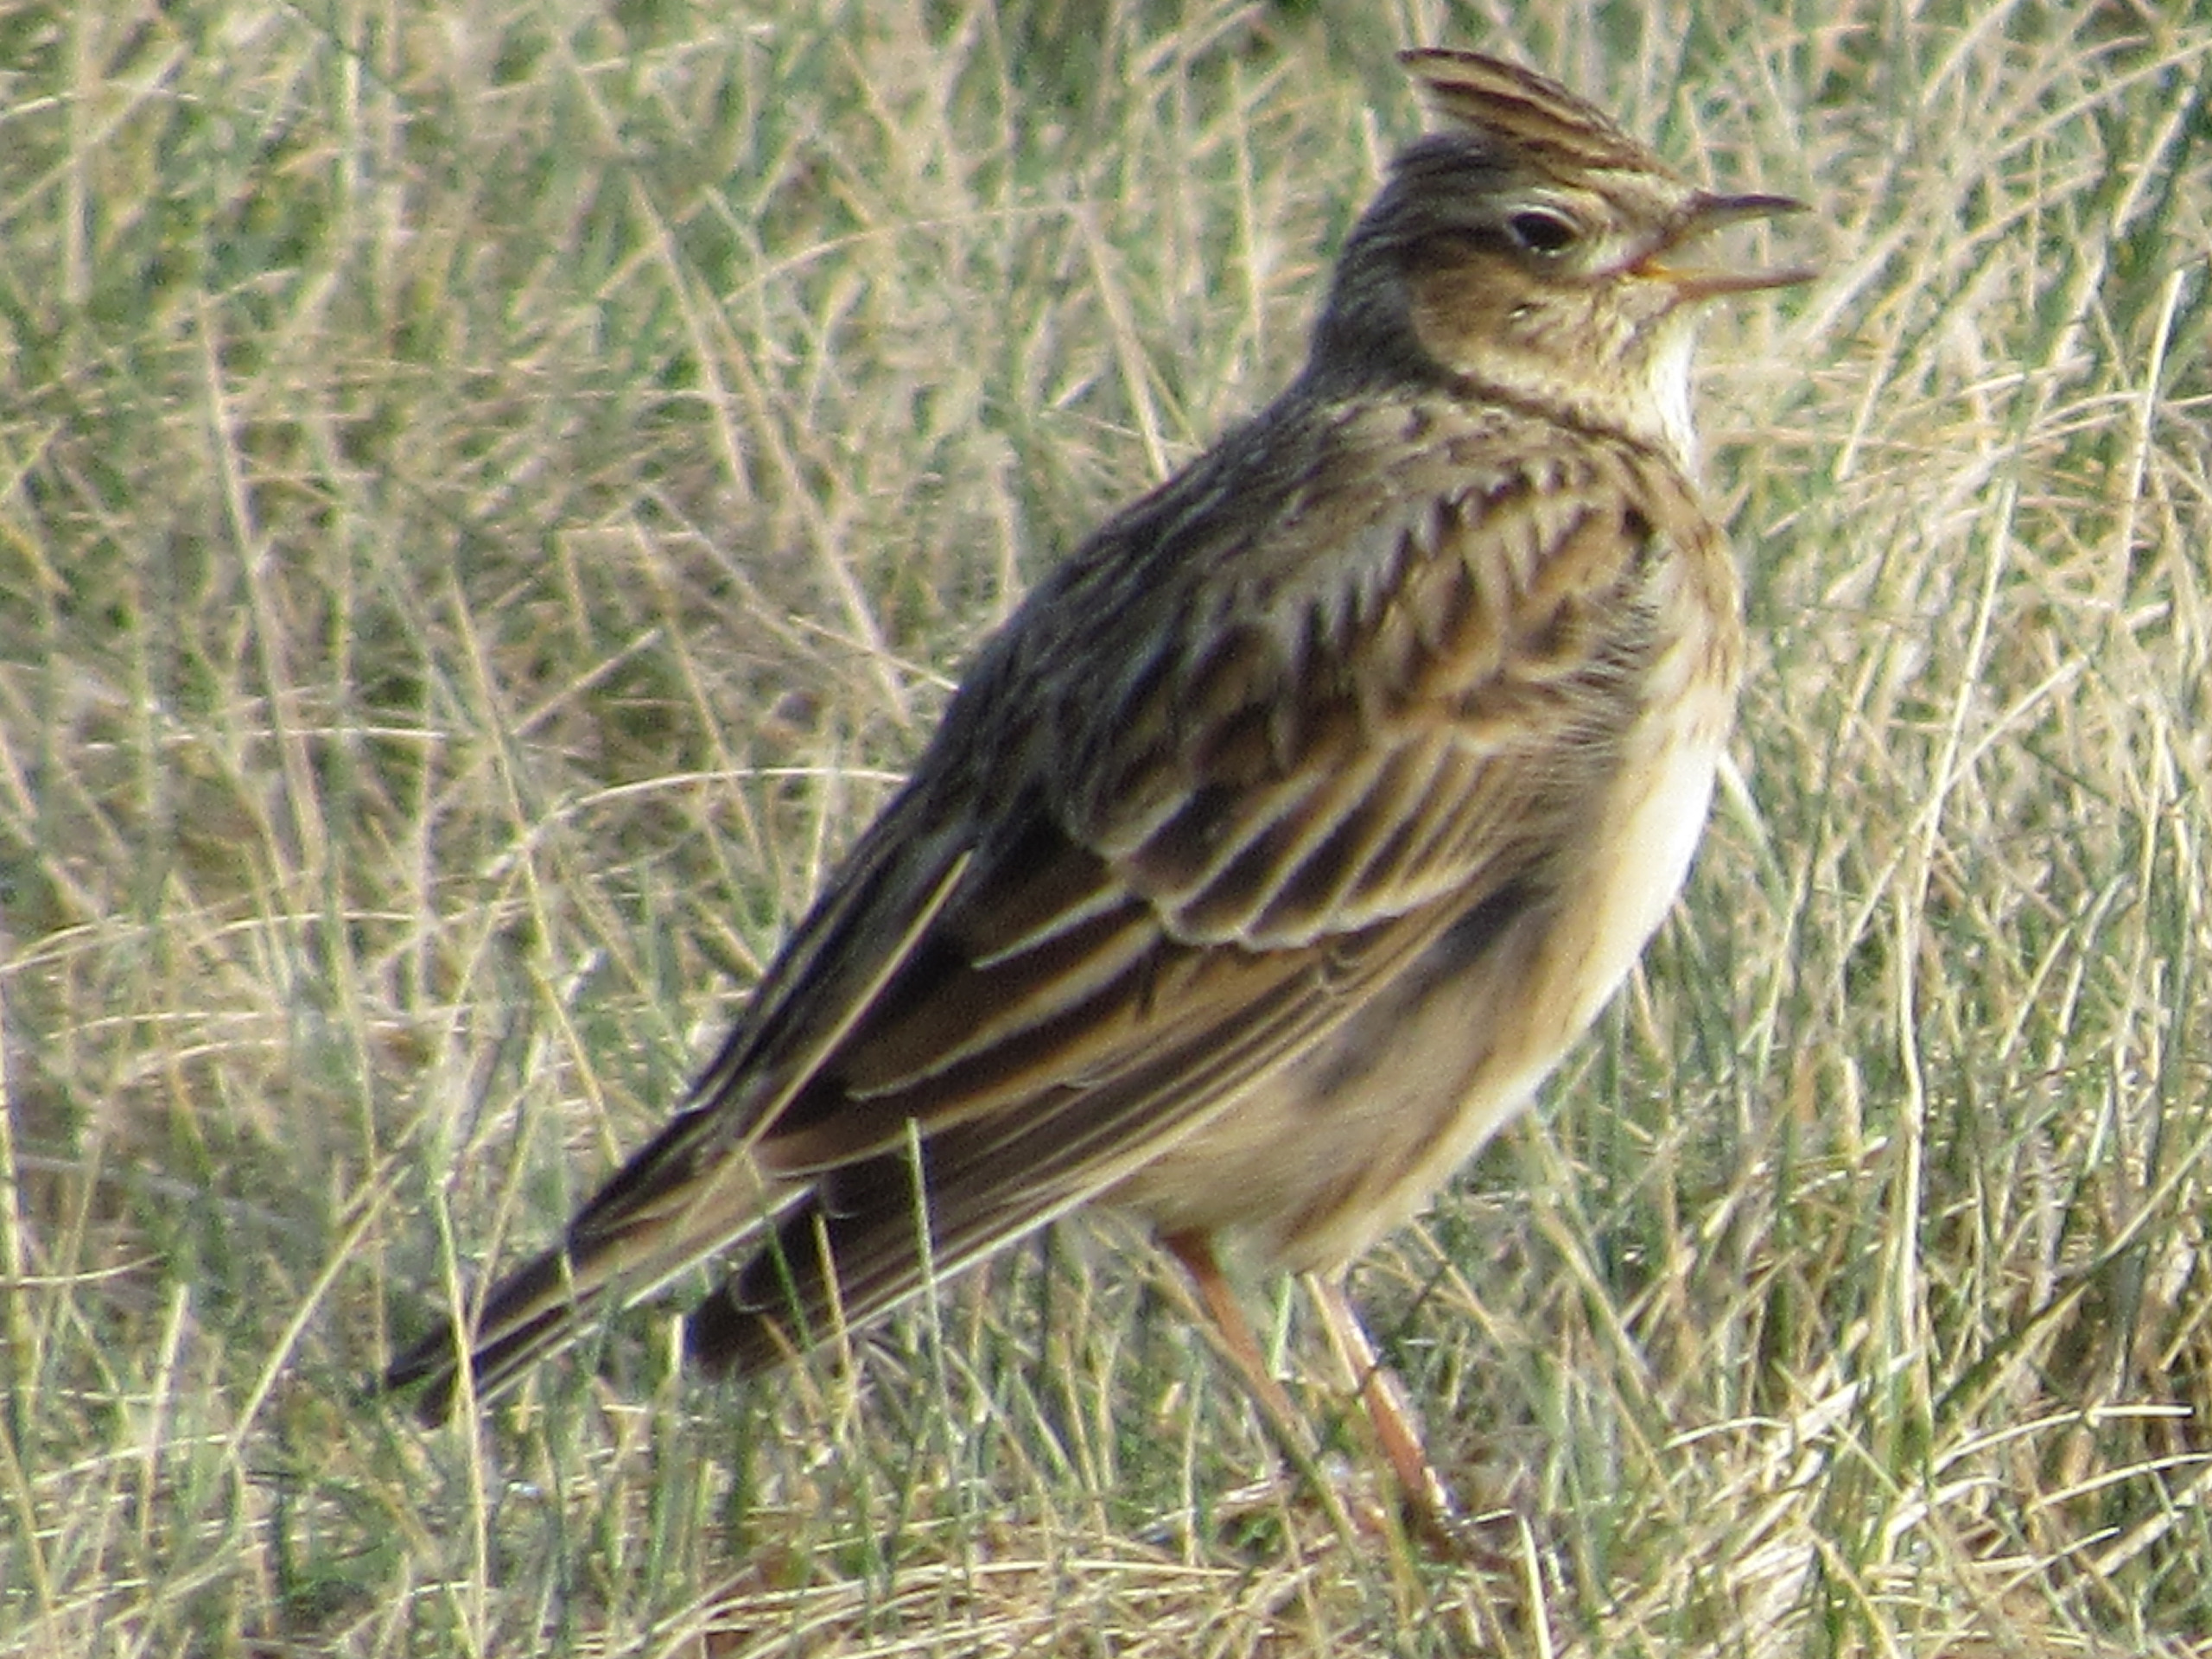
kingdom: Animalia
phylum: Chordata
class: Aves
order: Passeriformes
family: Alaudidae
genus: Alauda
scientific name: Alauda arvensis
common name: Sanglærke
